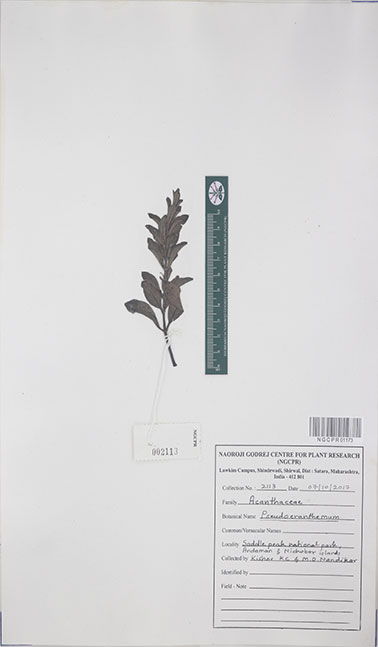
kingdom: Plantae
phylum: Tracheophyta
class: Magnoliopsida
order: Lamiales
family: Acanthaceae
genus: Pseudo-eranthemum
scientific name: Pseudo-eranthemum
